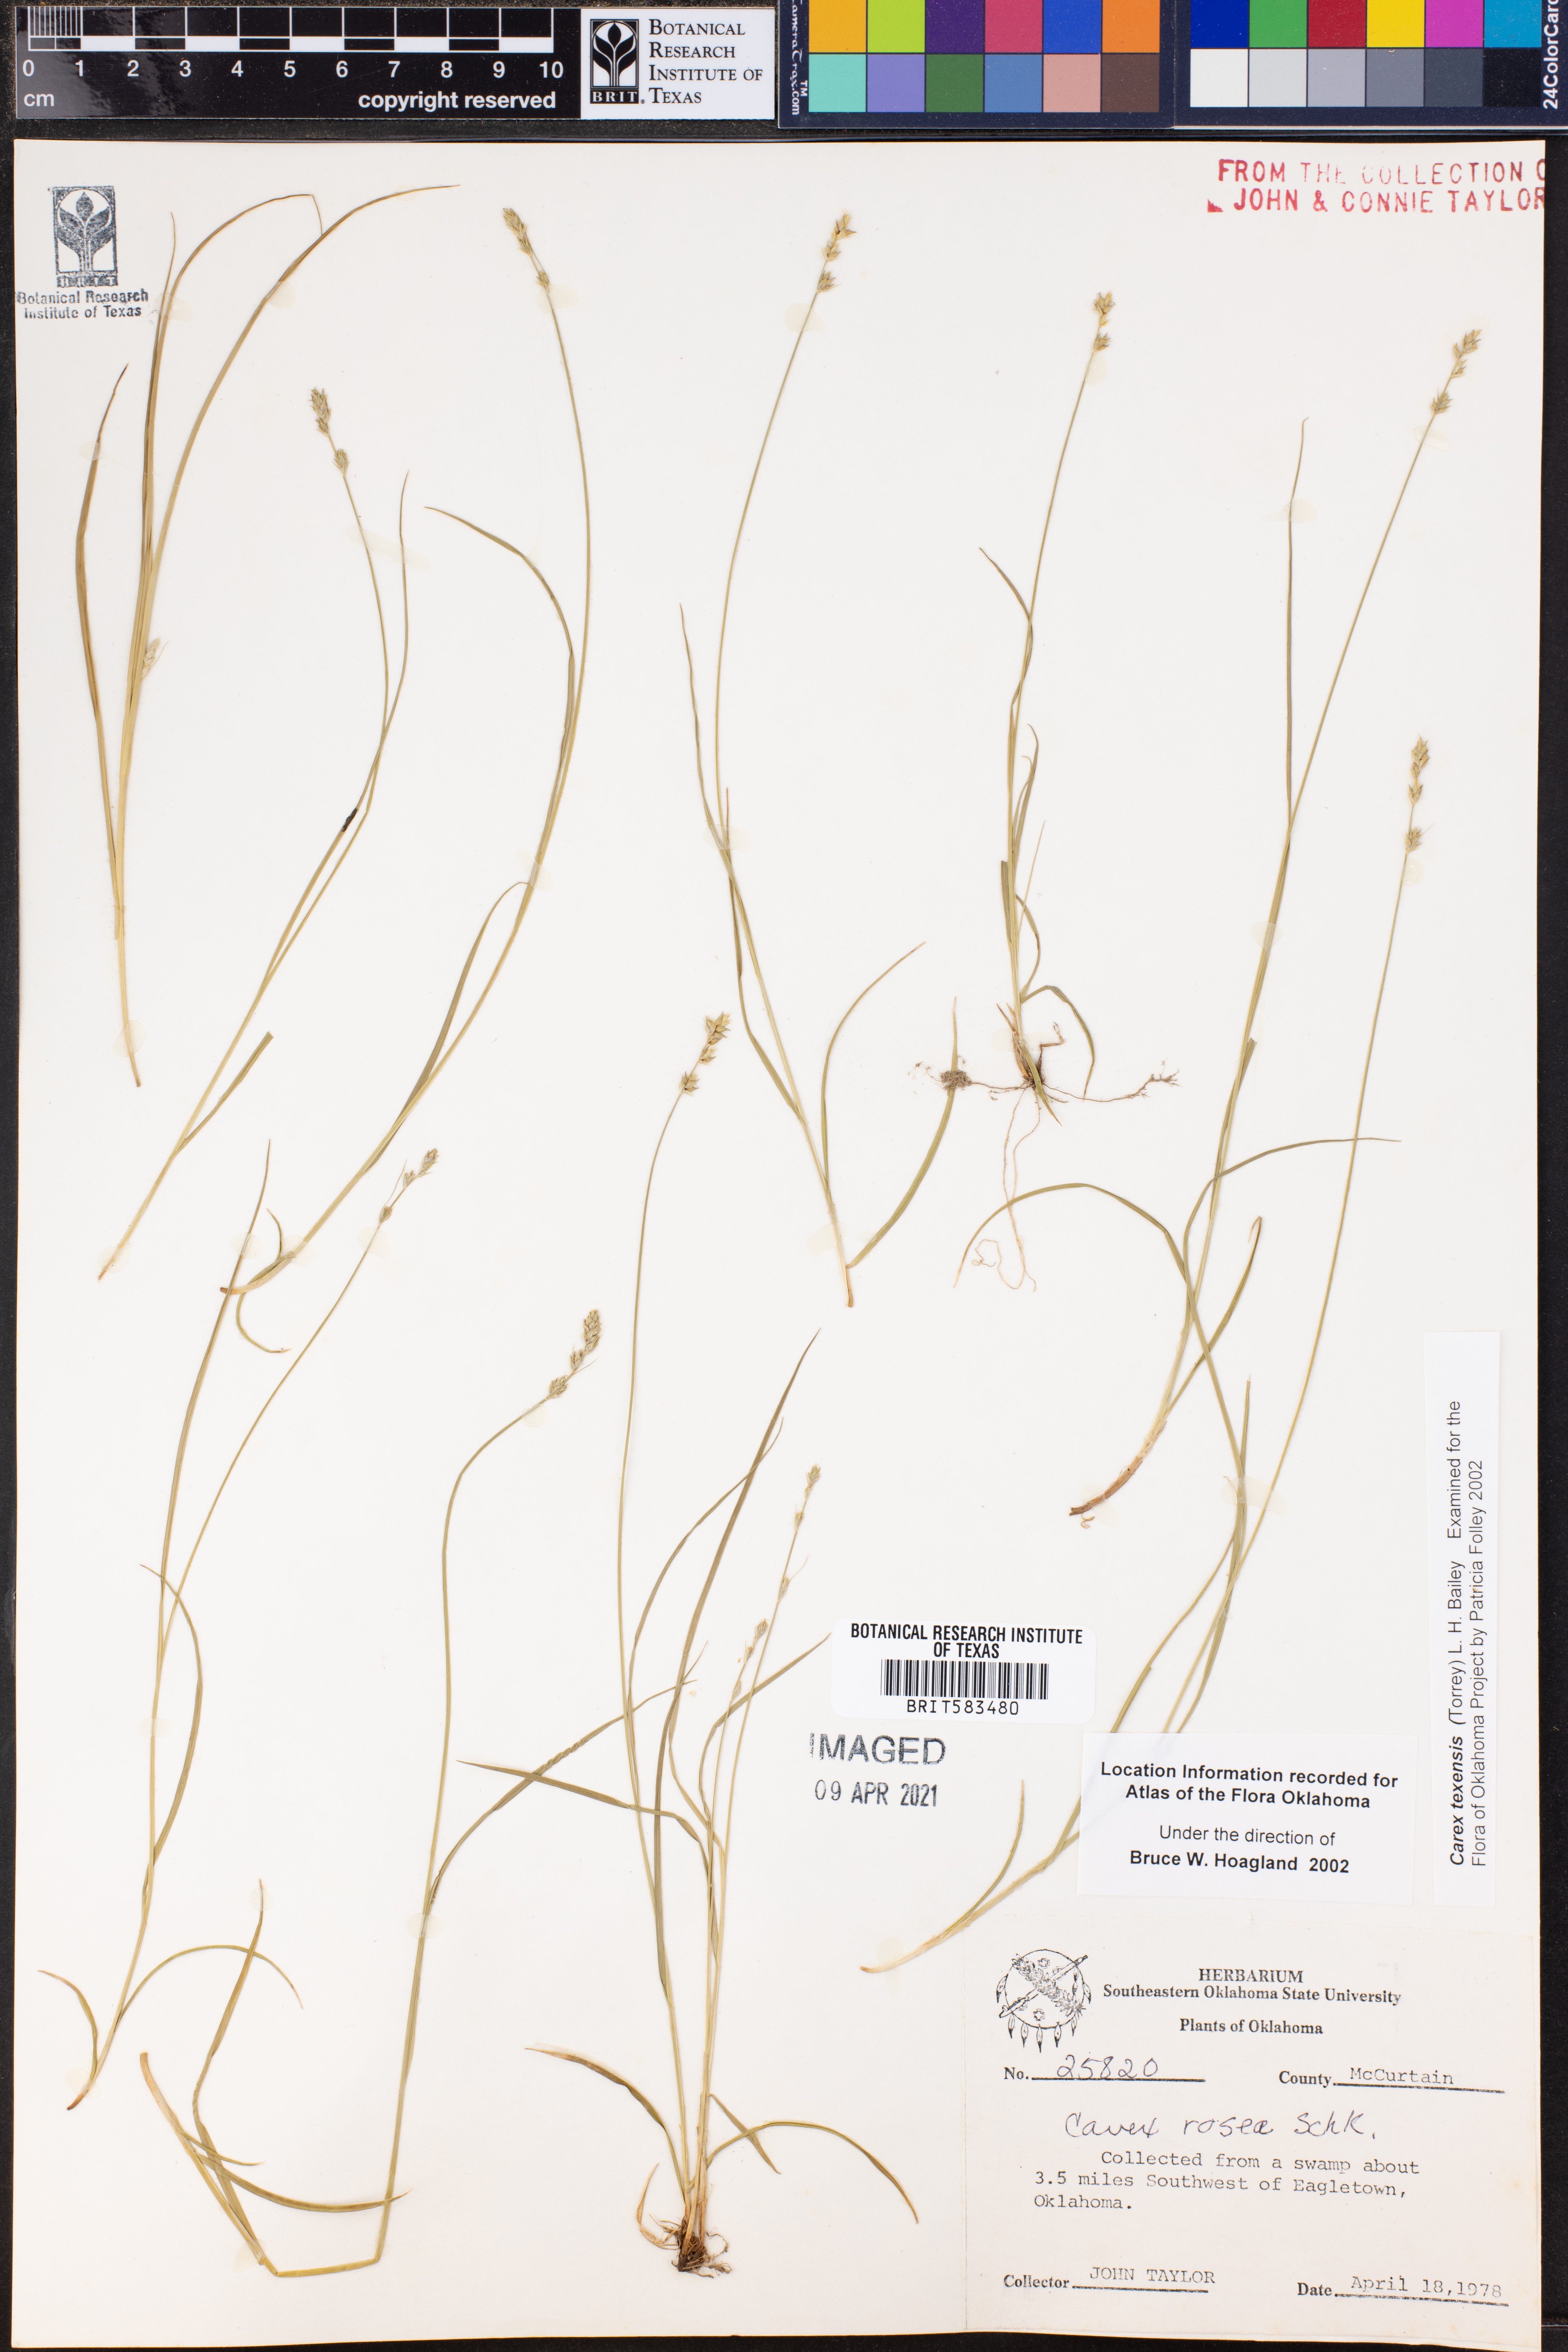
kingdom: Plantae
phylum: Tracheophyta
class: Liliopsida
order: Poales
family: Cyperaceae
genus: Carex
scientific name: Carex rosea
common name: Curly-styled wood sedge
